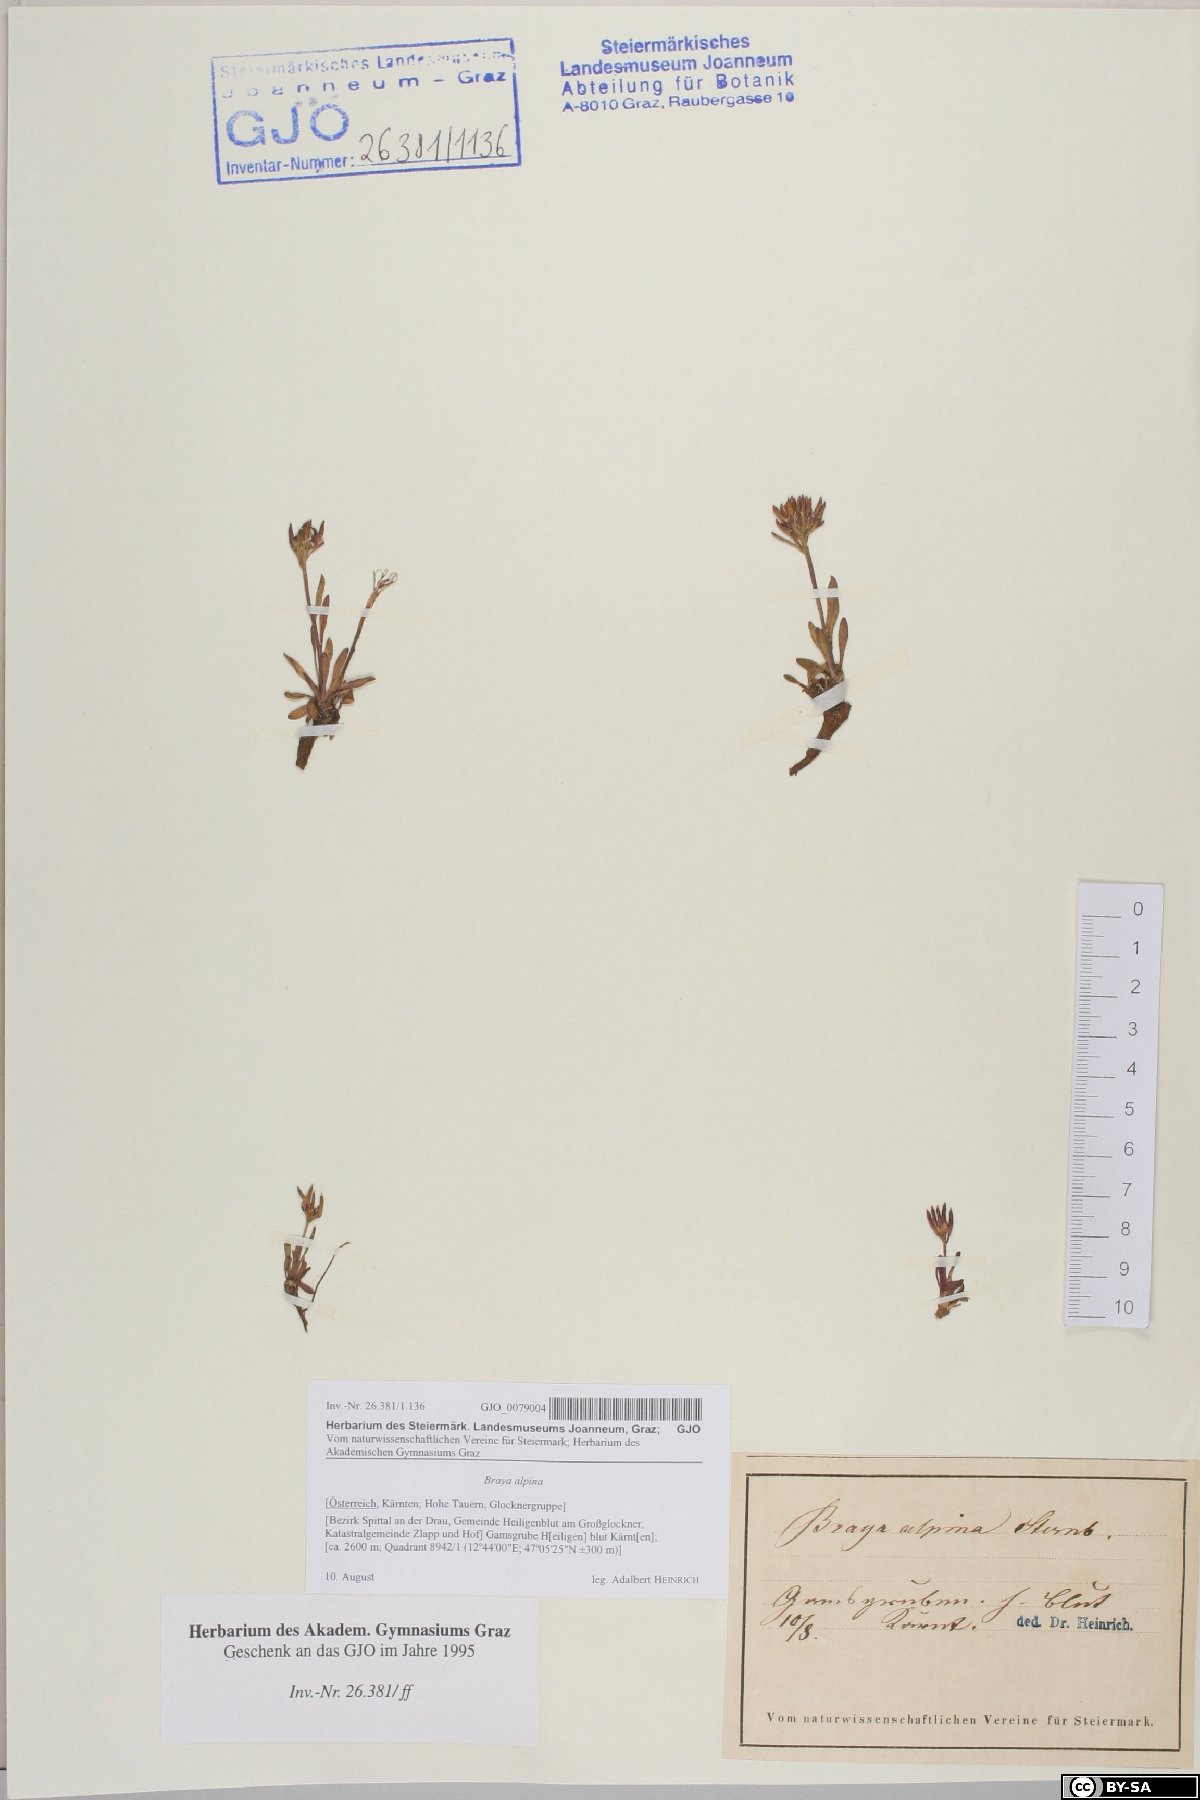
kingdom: Plantae
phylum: Tracheophyta
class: Magnoliopsida
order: Brassicales
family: Brassicaceae
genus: Braya
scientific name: Braya alpina
